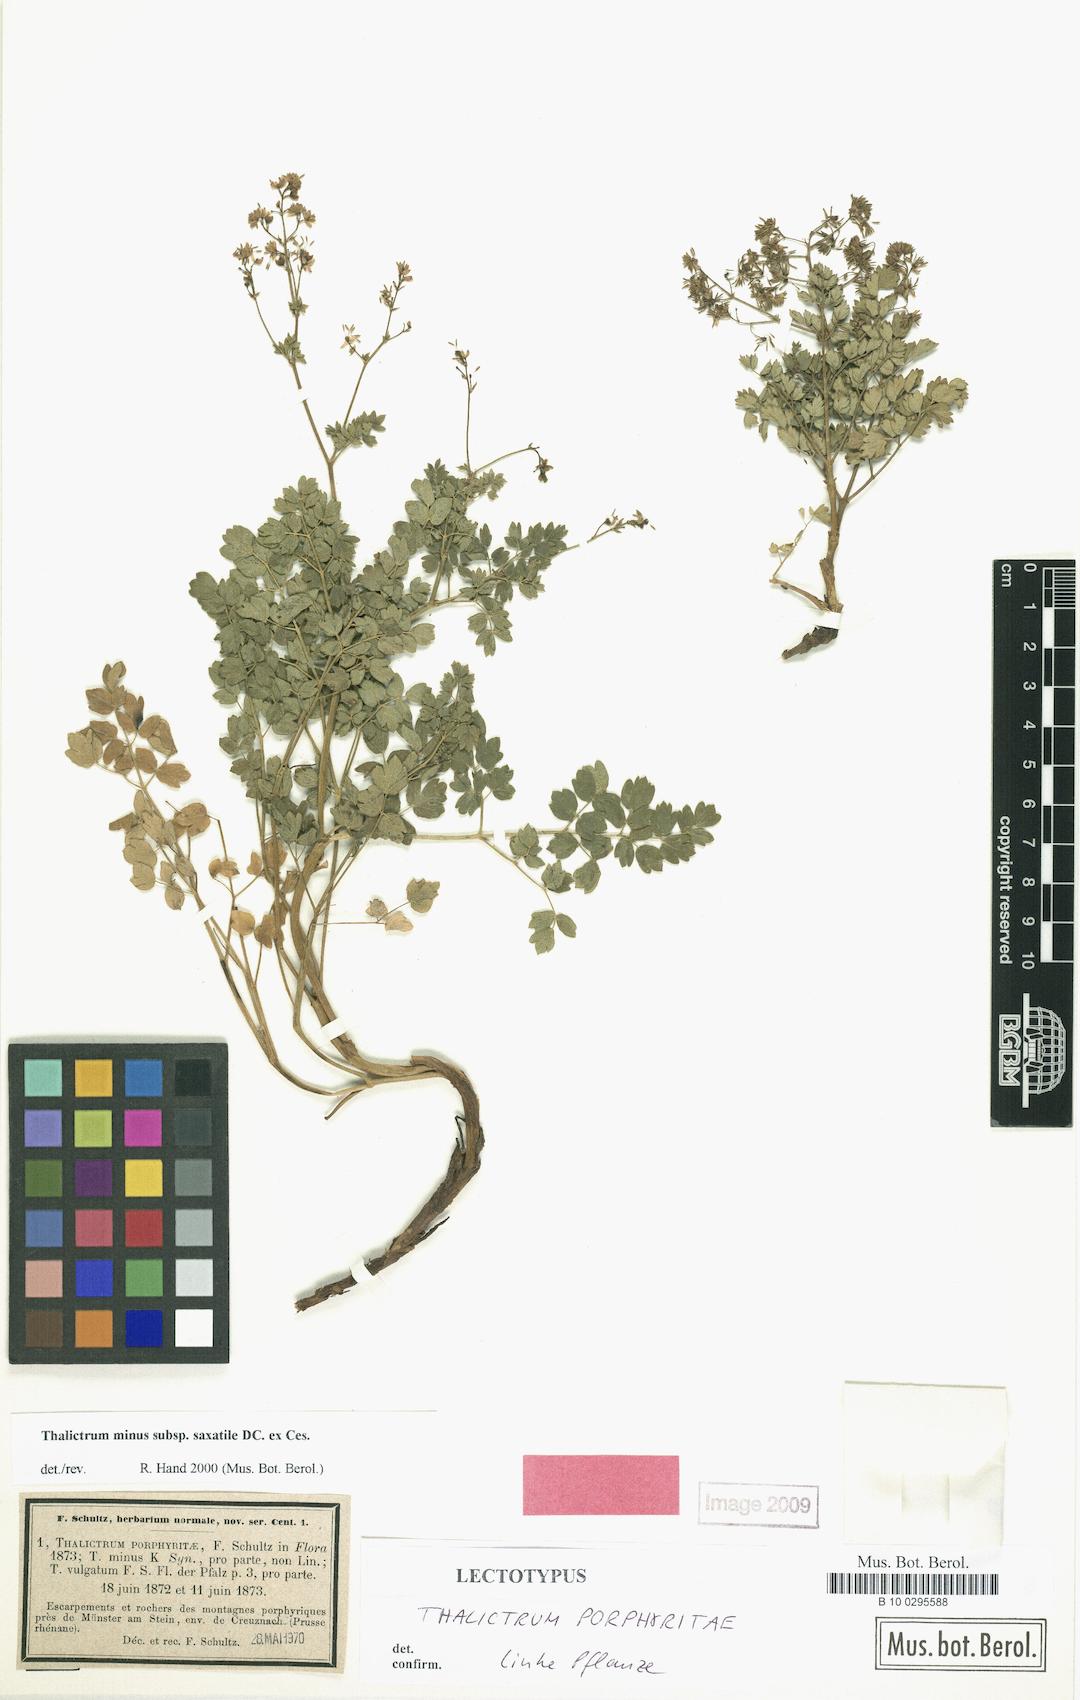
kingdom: Plantae
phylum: Tracheophyta
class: Magnoliopsida
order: Ranunculales
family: Ranunculaceae
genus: Thalictrum
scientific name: Thalictrum minus
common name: Lesser meadow-rue
